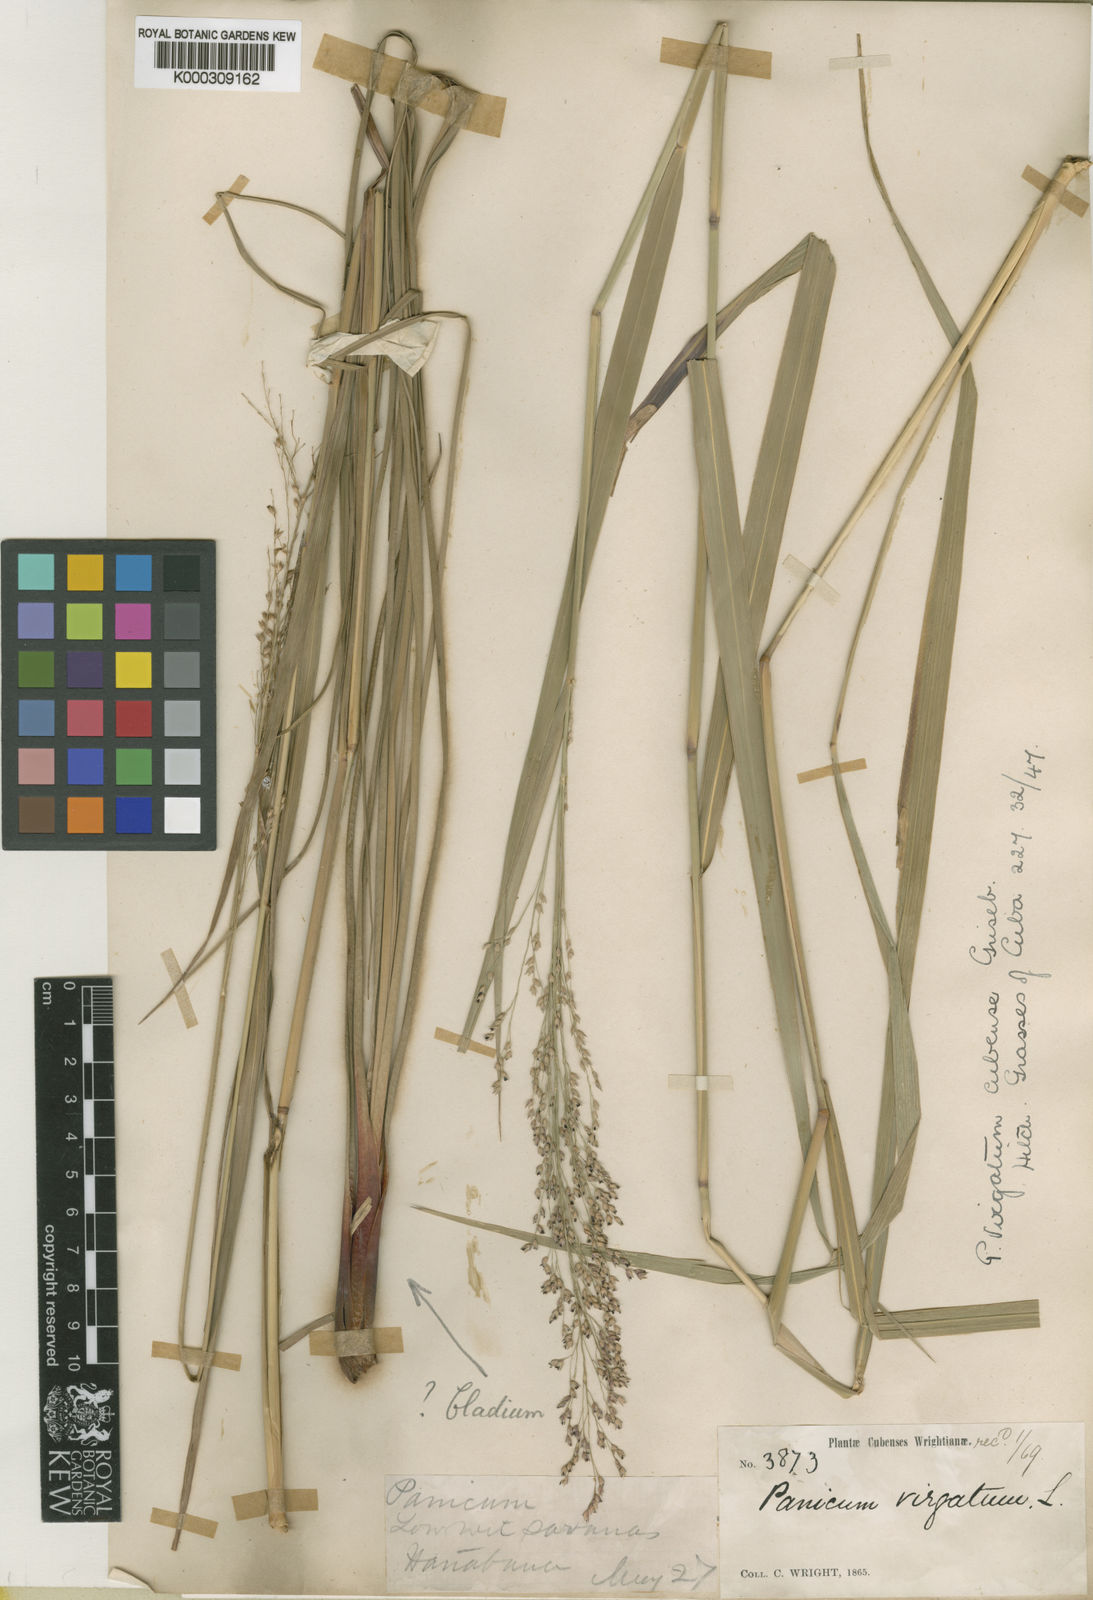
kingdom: Plantae
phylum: Tracheophyta
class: Liliopsida
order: Poales
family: Poaceae
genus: Panicum
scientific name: Panicum virgatum
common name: Switchgrass
